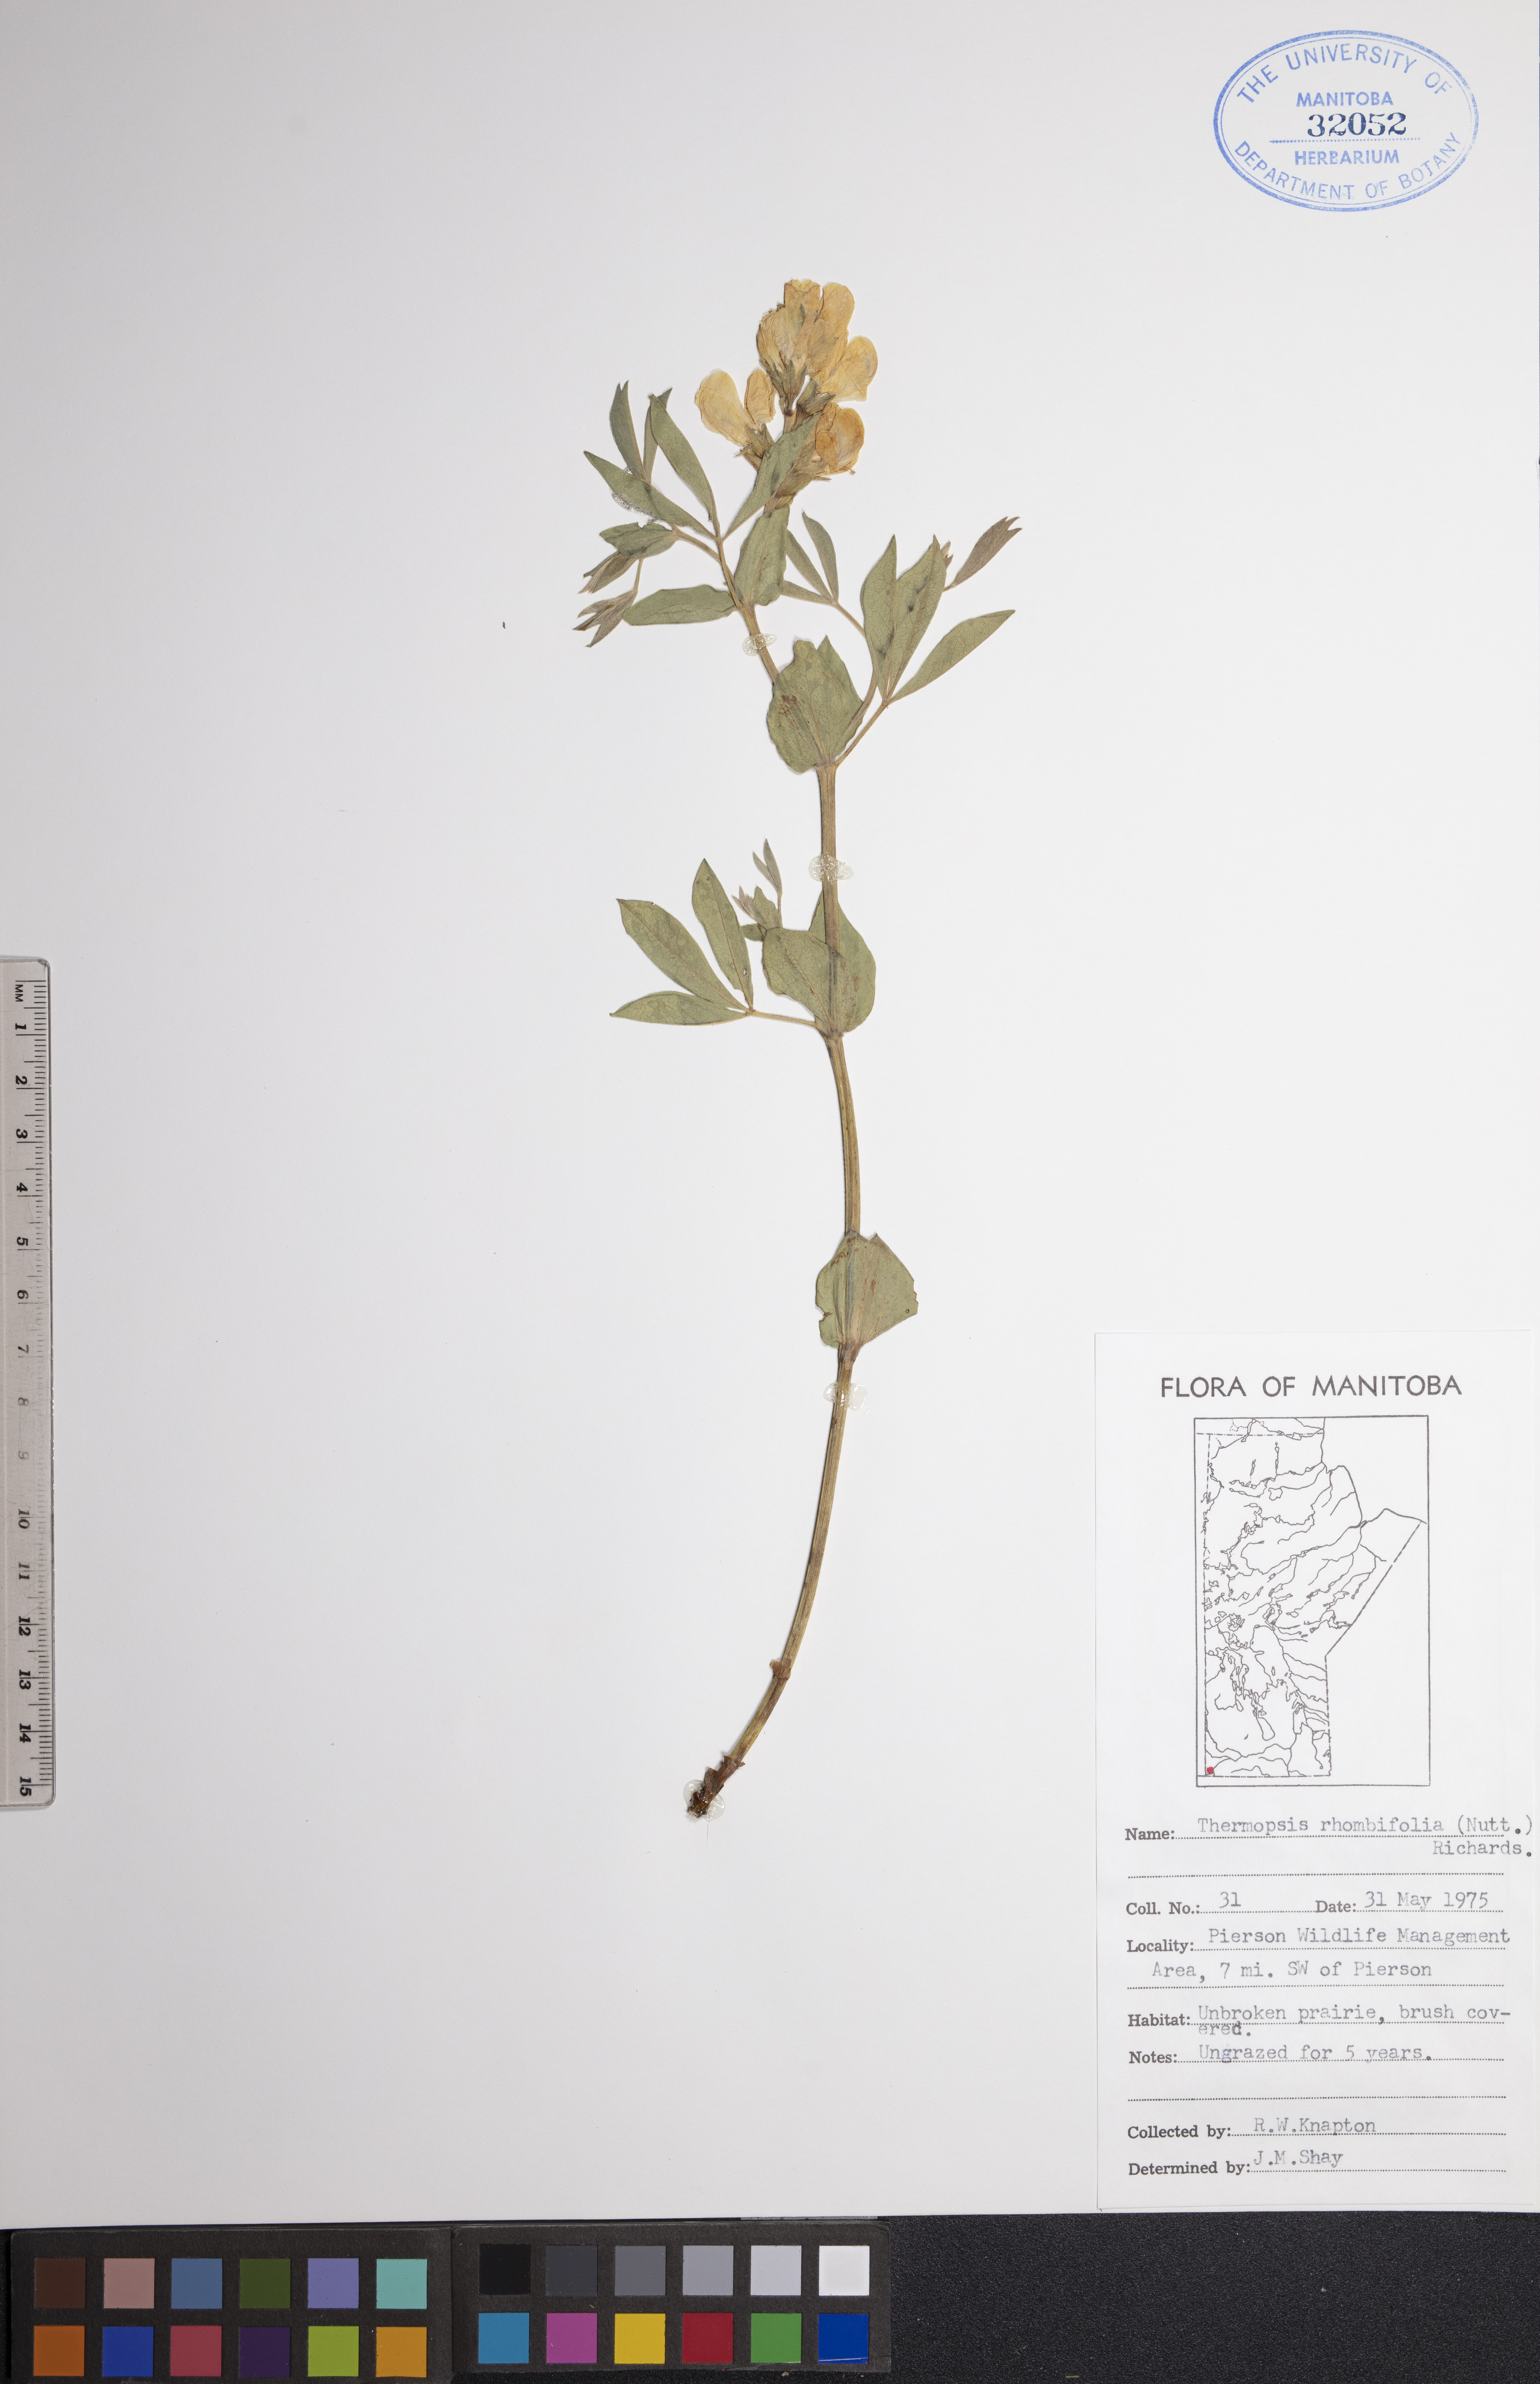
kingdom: Plantae
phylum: Tracheophyta
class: Magnoliopsida
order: Fabales
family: Fabaceae
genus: Thermopsis
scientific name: Thermopsis rhombifolia
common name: Circle-pod-pea
